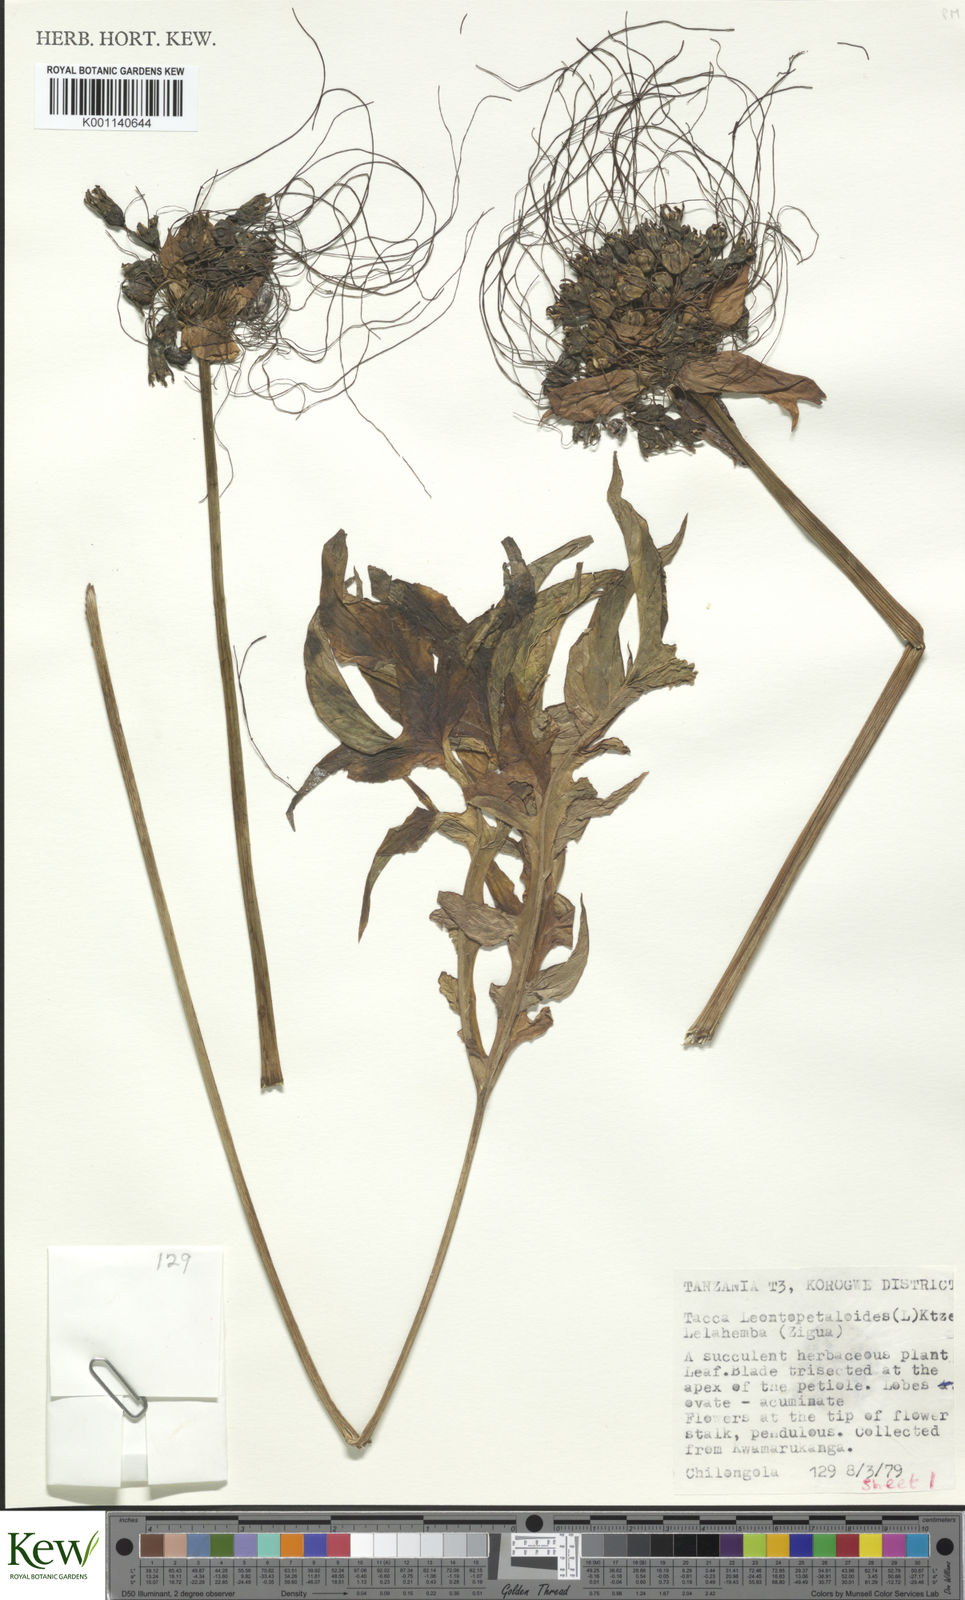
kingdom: Plantae
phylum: Tracheophyta
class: Liliopsida
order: Dioscoreales
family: Dioscoreaceae
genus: Tacca
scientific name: Tacca leontopetaloides
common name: Arrowroot
